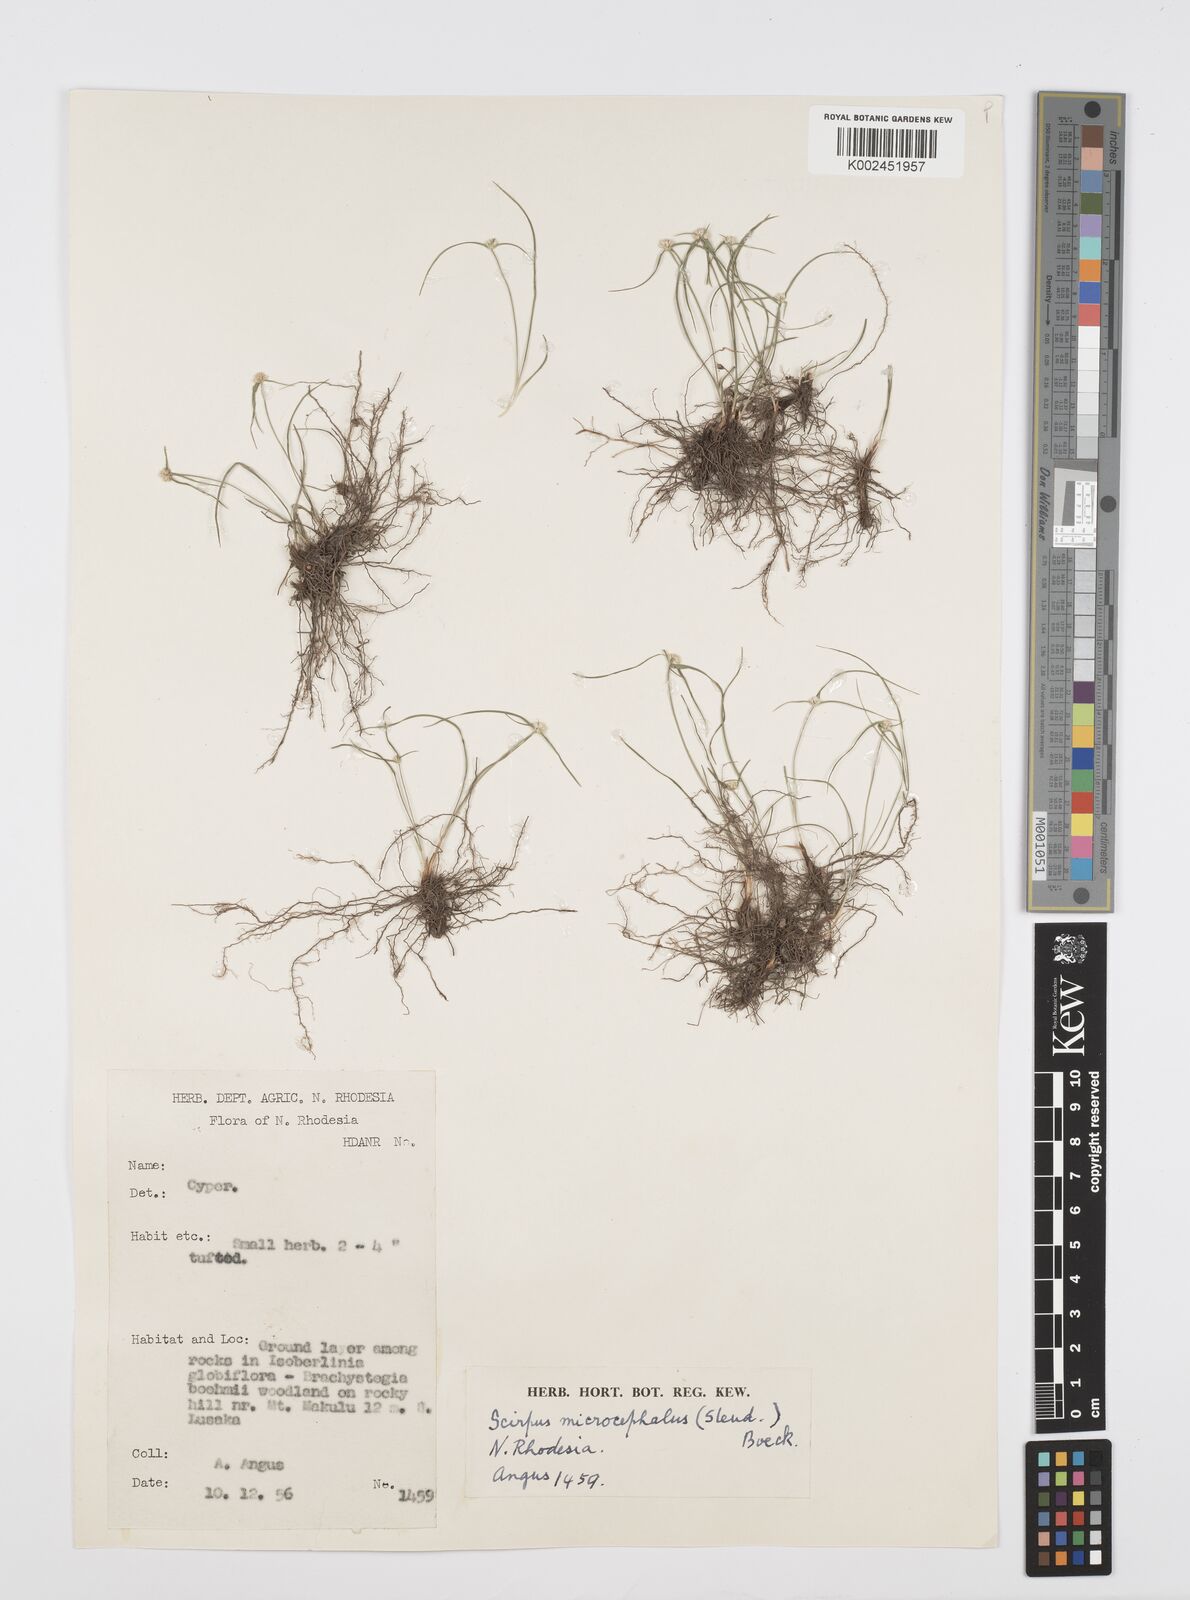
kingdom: Plantae
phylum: Tracheophyta
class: Liliopsida
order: Poales
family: Cyperaceae
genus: Cyperus
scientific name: Cyperus microcephalus
